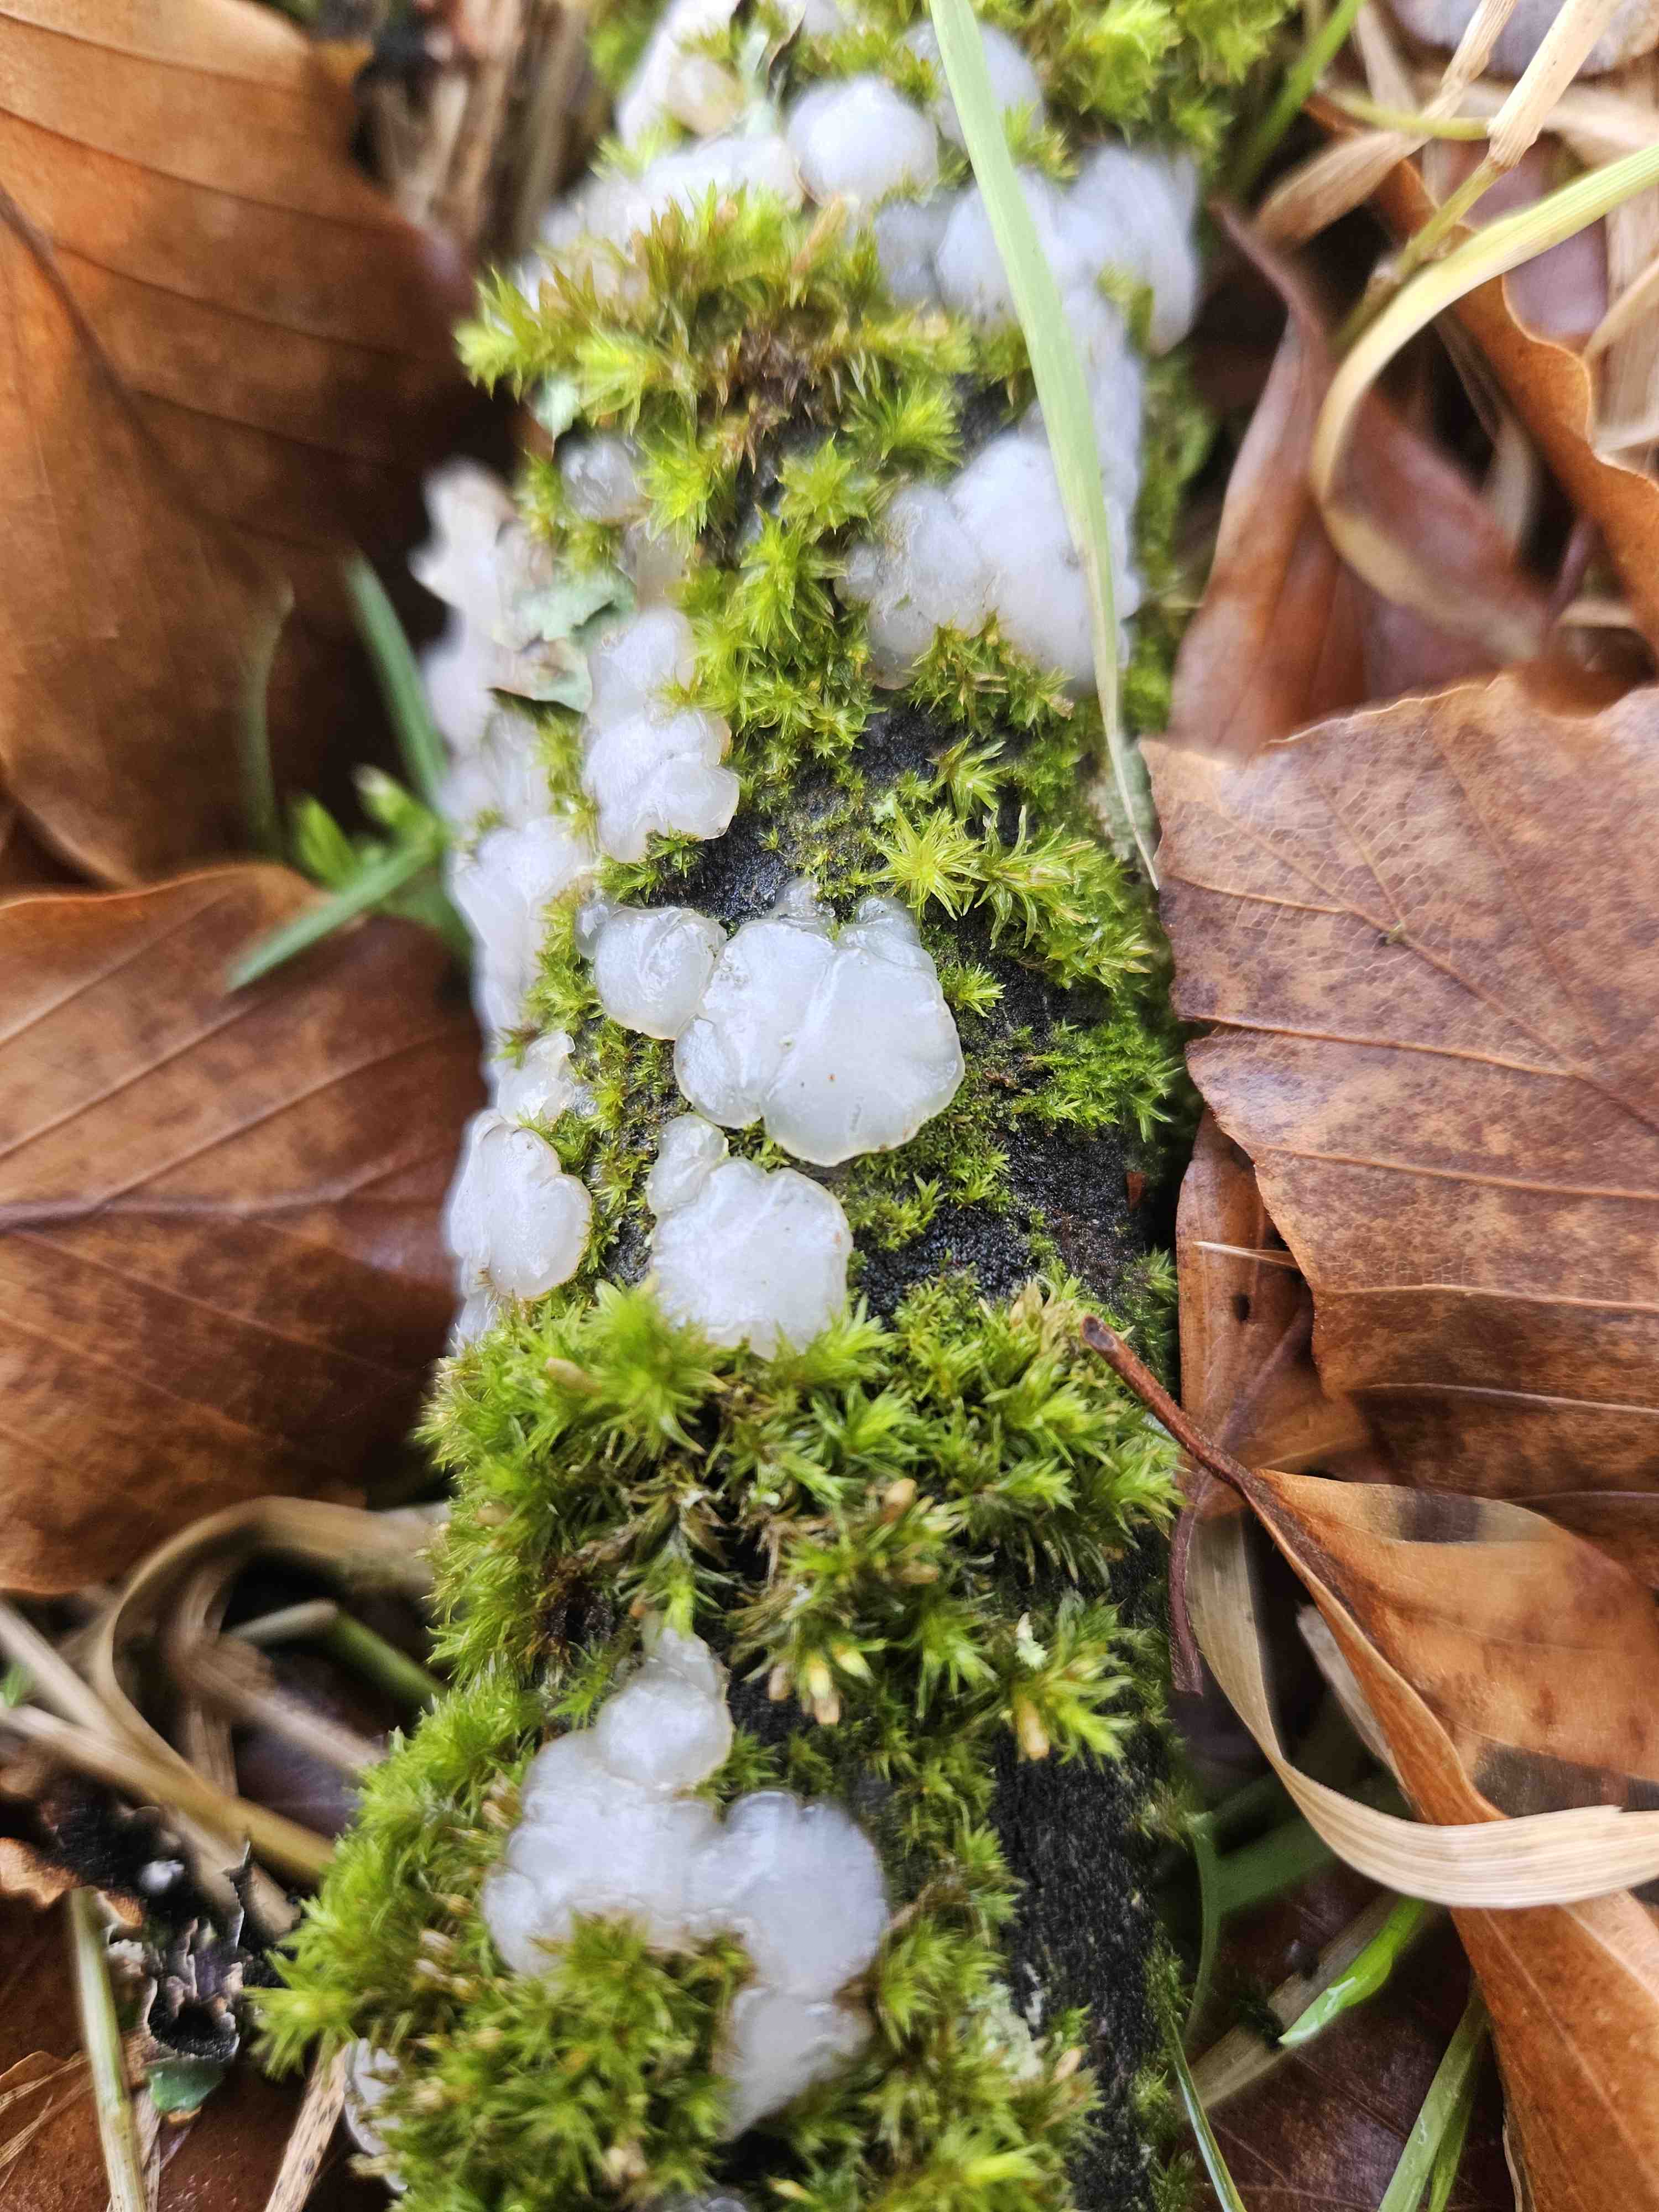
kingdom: Fungi
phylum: Basidiomycota
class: Agaricomycetes
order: Auriculariales
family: Auriculariaceae
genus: Exidia
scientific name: Exidia thuretiana
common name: hvidlig bævretop
